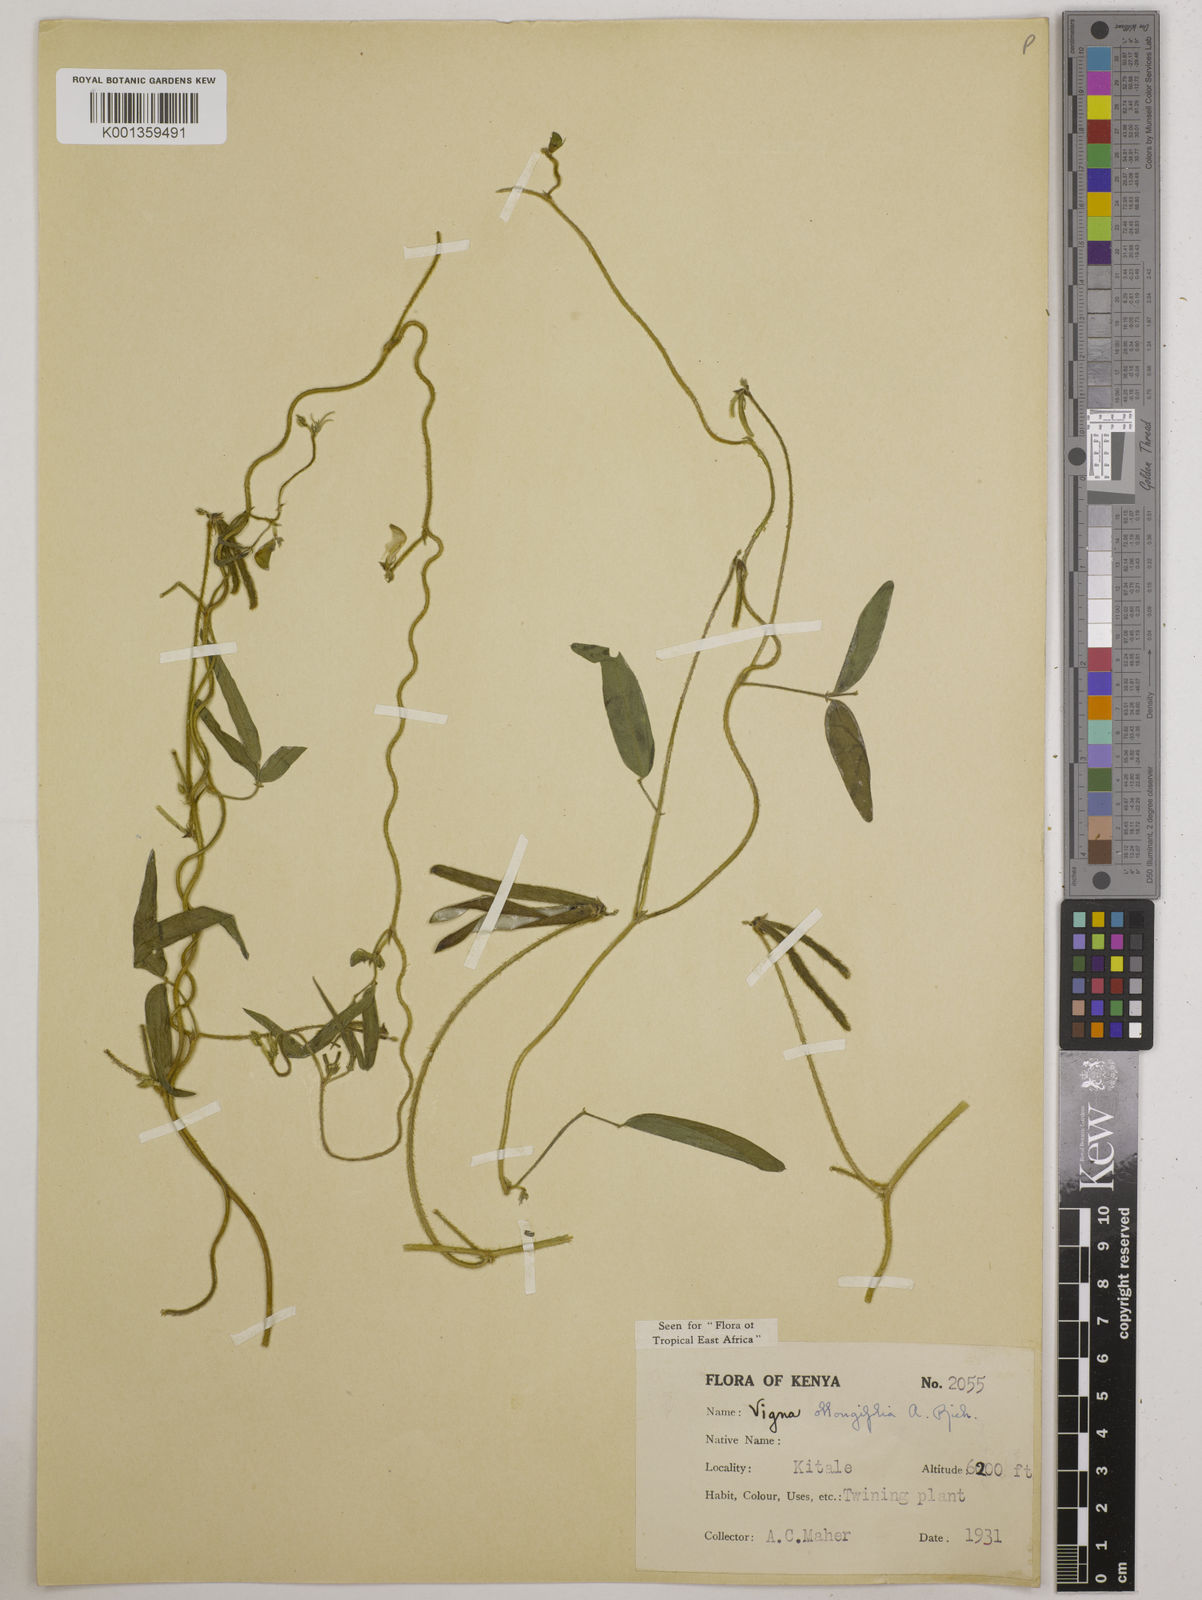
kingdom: Plantae
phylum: Tracheophyta
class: Magnoliopsida
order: Fabales
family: Fabaceae
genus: Vigna
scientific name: Vigna oblongifolia
